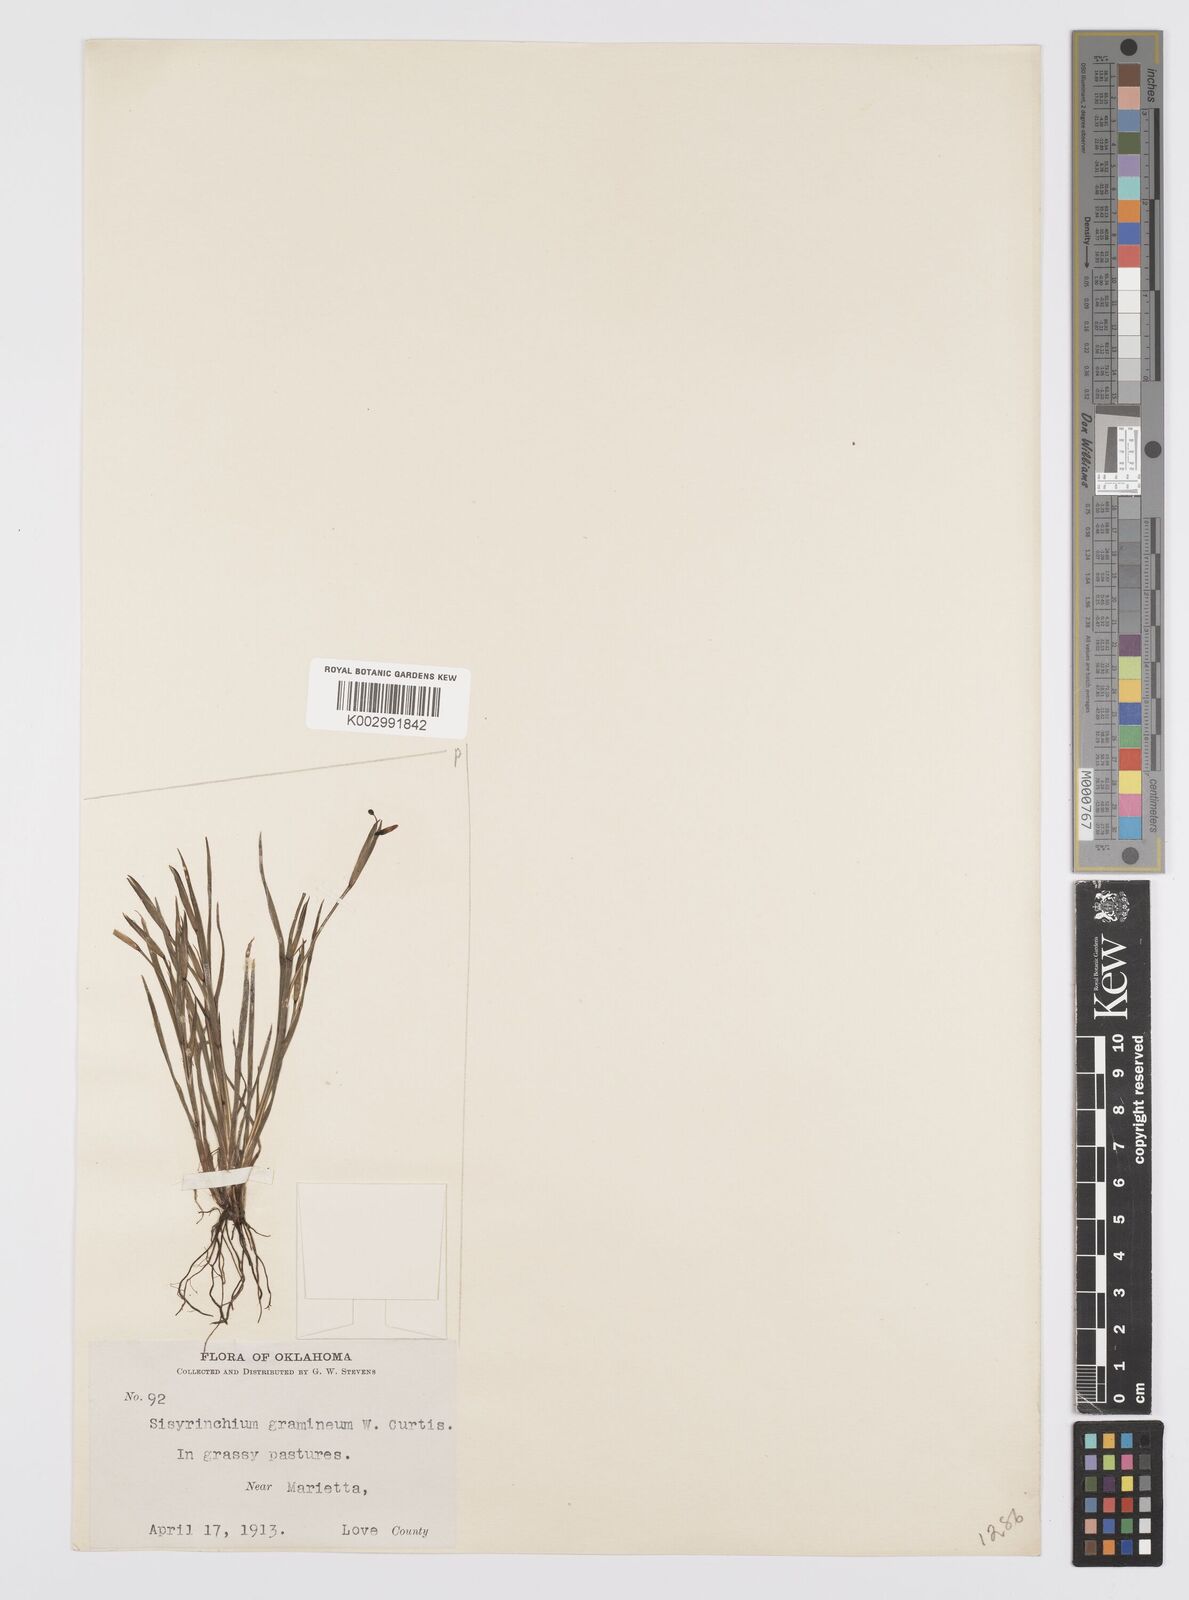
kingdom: Plantae
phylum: Tracheophyta
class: Liliopsida
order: Asparagales
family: Iridaceae
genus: Sisyrinchium
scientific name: Sisyrinchium bermudiana
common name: Blue-eyed-grass
